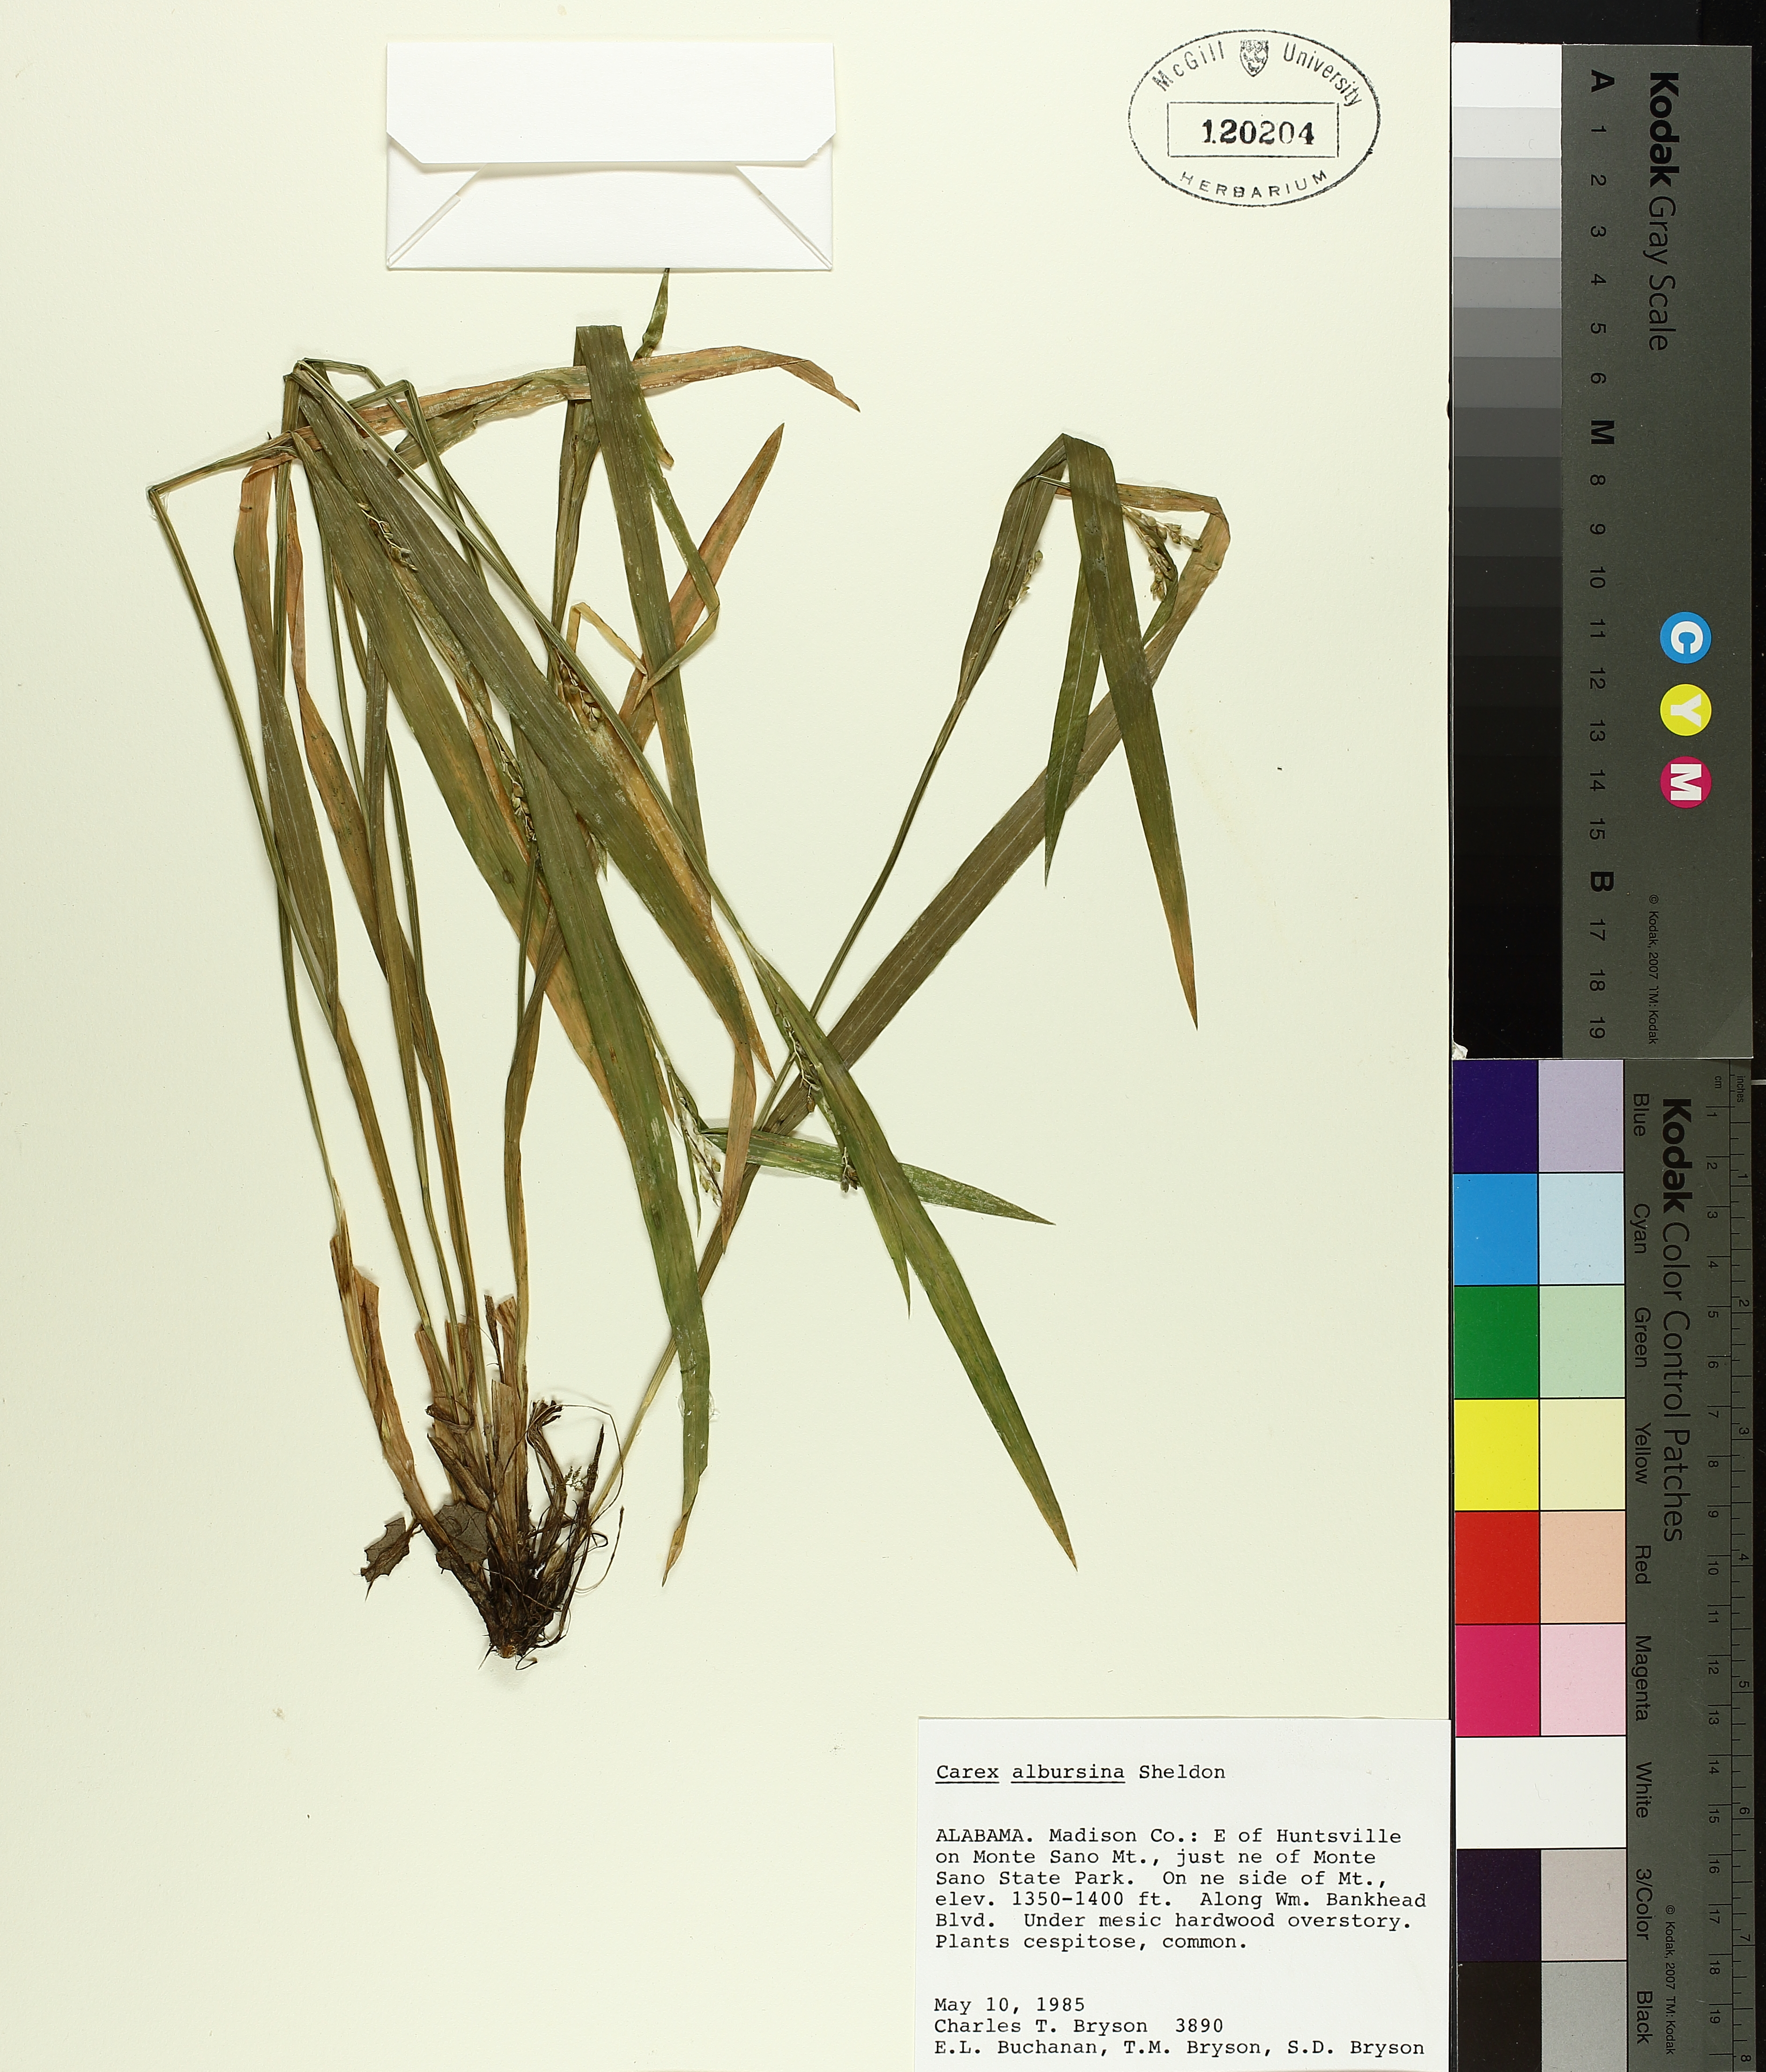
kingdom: Plantae
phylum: Tracheophyta
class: Liliopsida
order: Poales
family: Cyperaceae
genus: Carex
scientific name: Carex albursina
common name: Blunt-scale wood sedge
